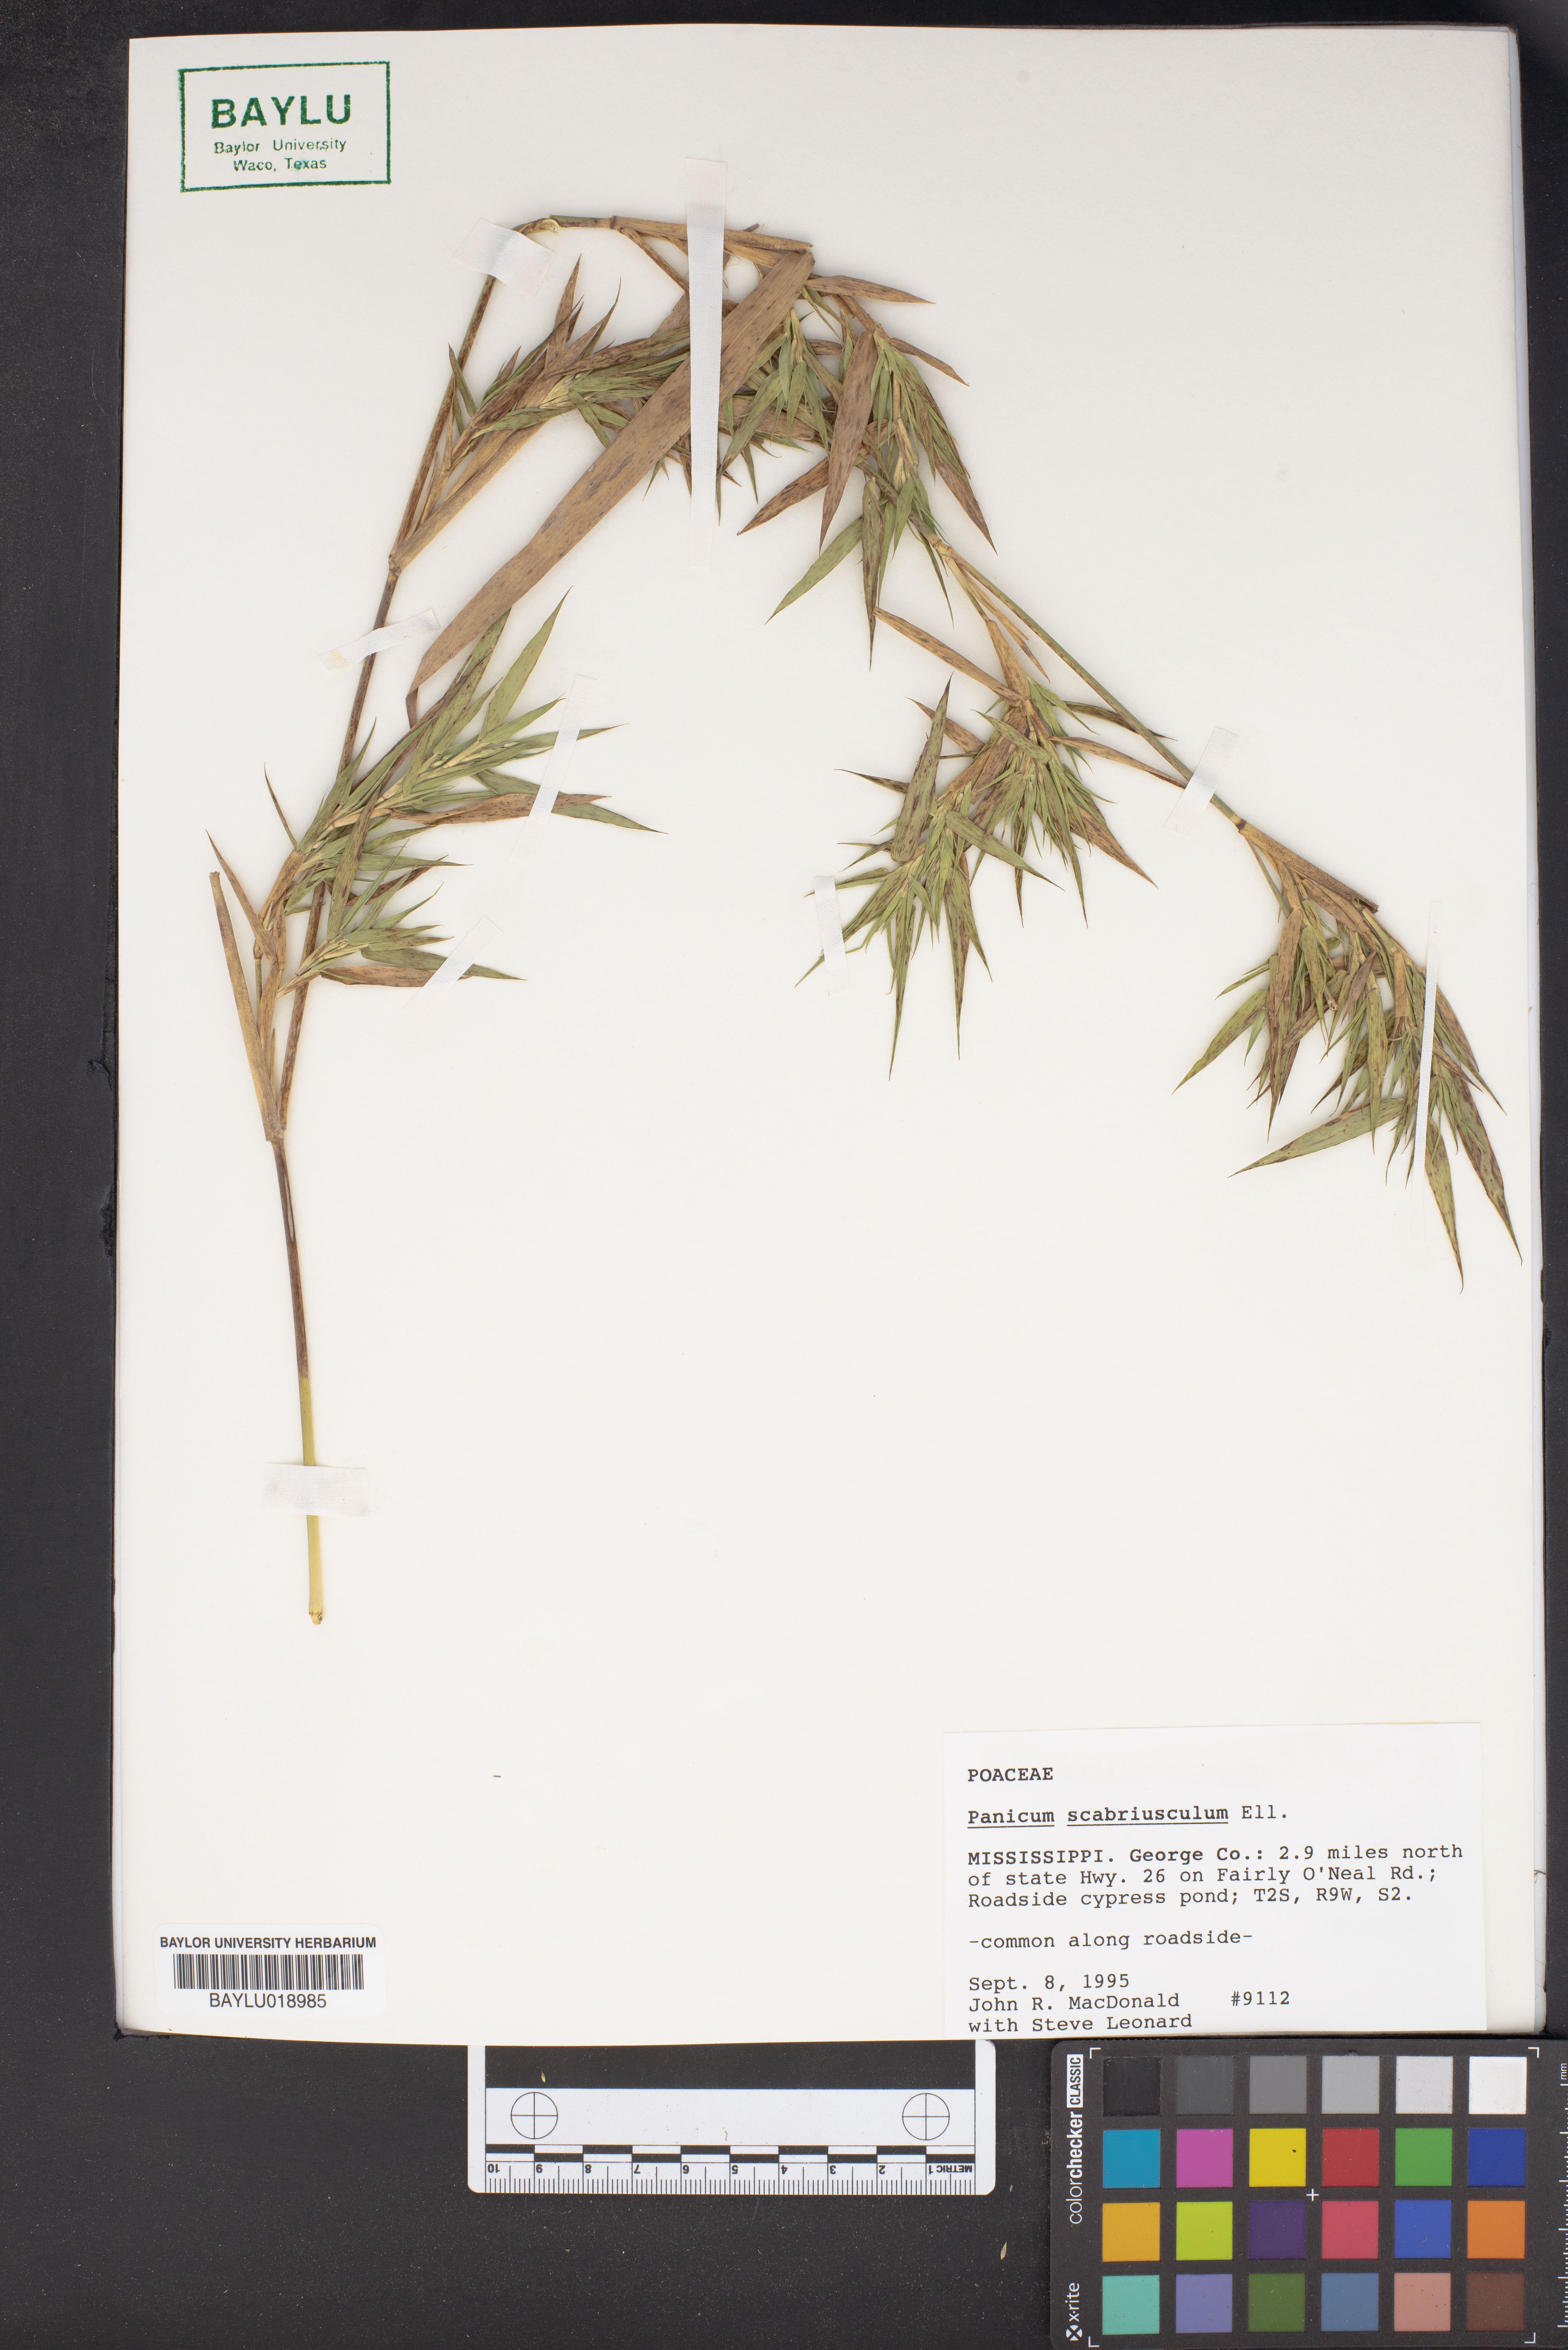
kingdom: Plantae
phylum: Tracheophyta
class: Liliopsida
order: Poales
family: Poaceae
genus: Dichanthelium
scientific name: Dichanthelium scabriusculum
